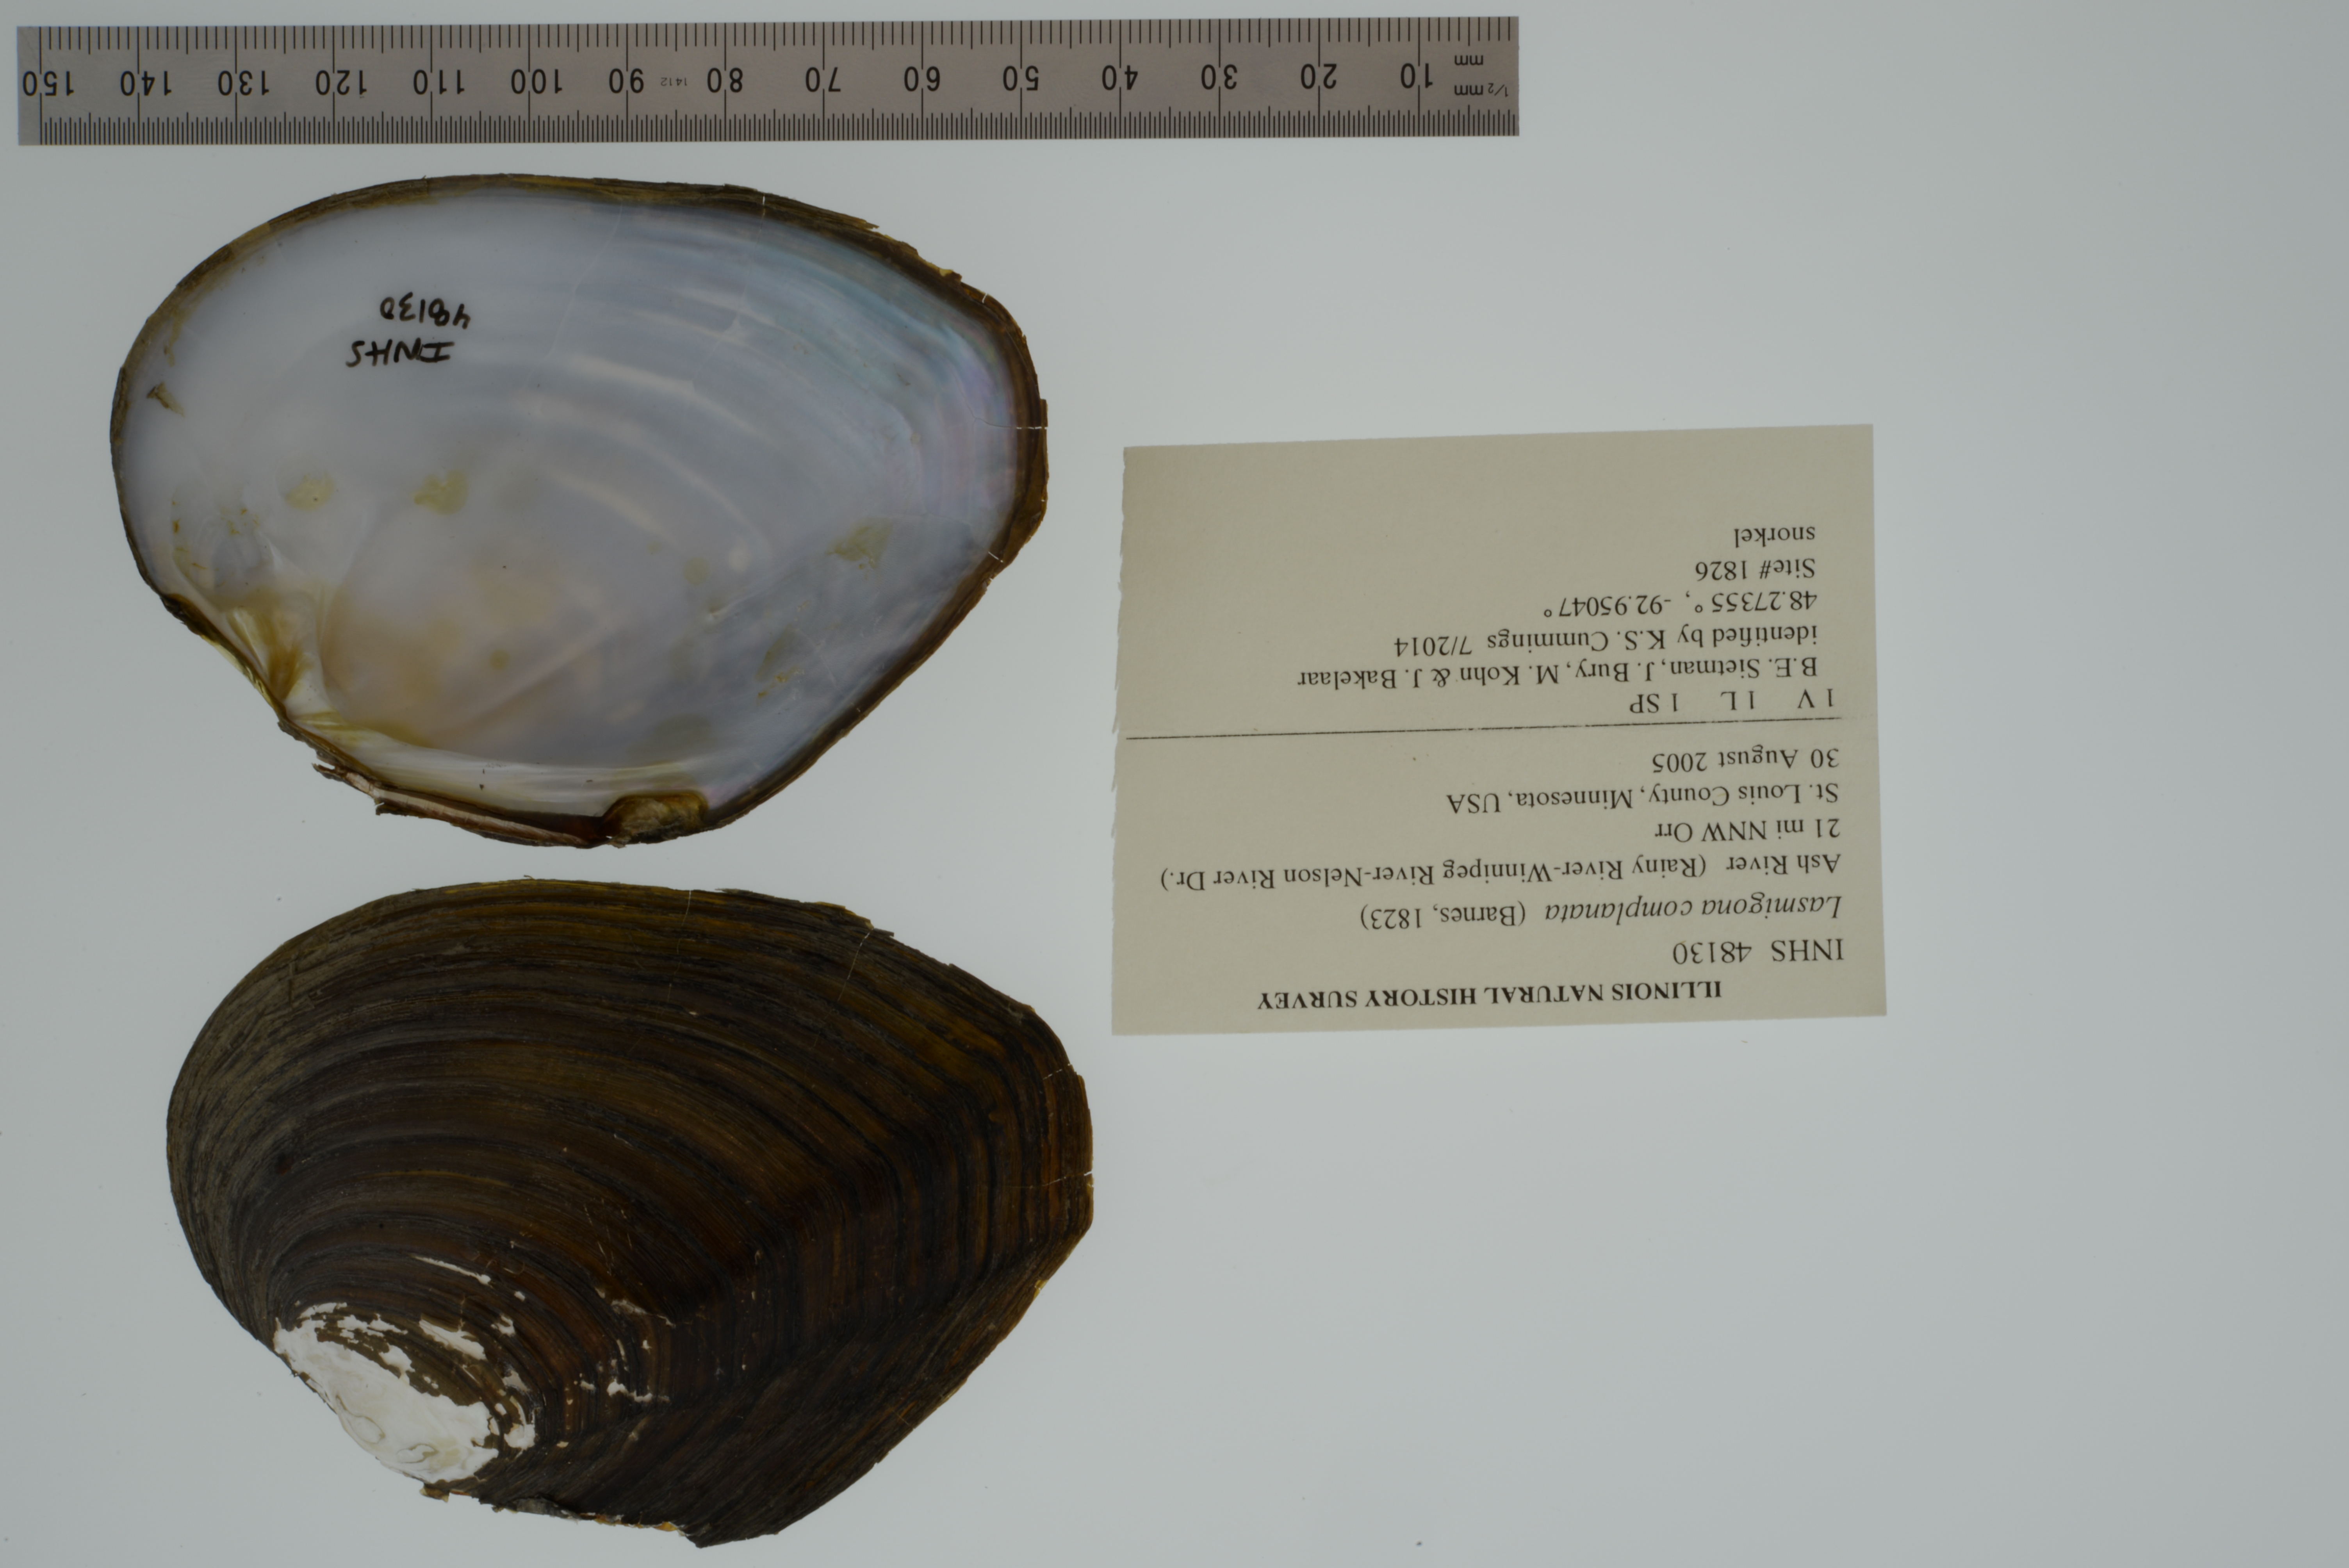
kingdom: Animalia
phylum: Mollusca
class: Bivalvia
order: Unionida
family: Unionidae
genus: Lasmigona
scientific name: Lasmigona complanata
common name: White heelsplitter
